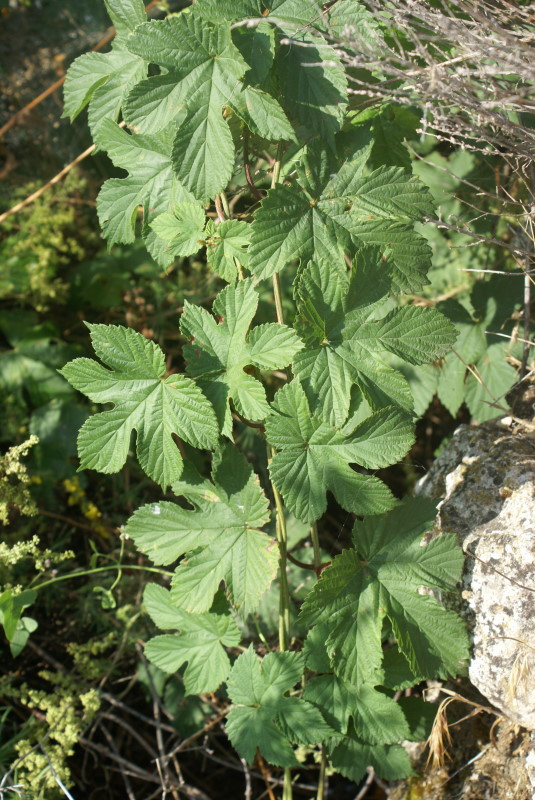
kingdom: Plantae
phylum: Tracheophyta
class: Magnoliopsida
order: Rosales
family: Cannabaceae
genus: Humulus
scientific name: Humulus lupulus
